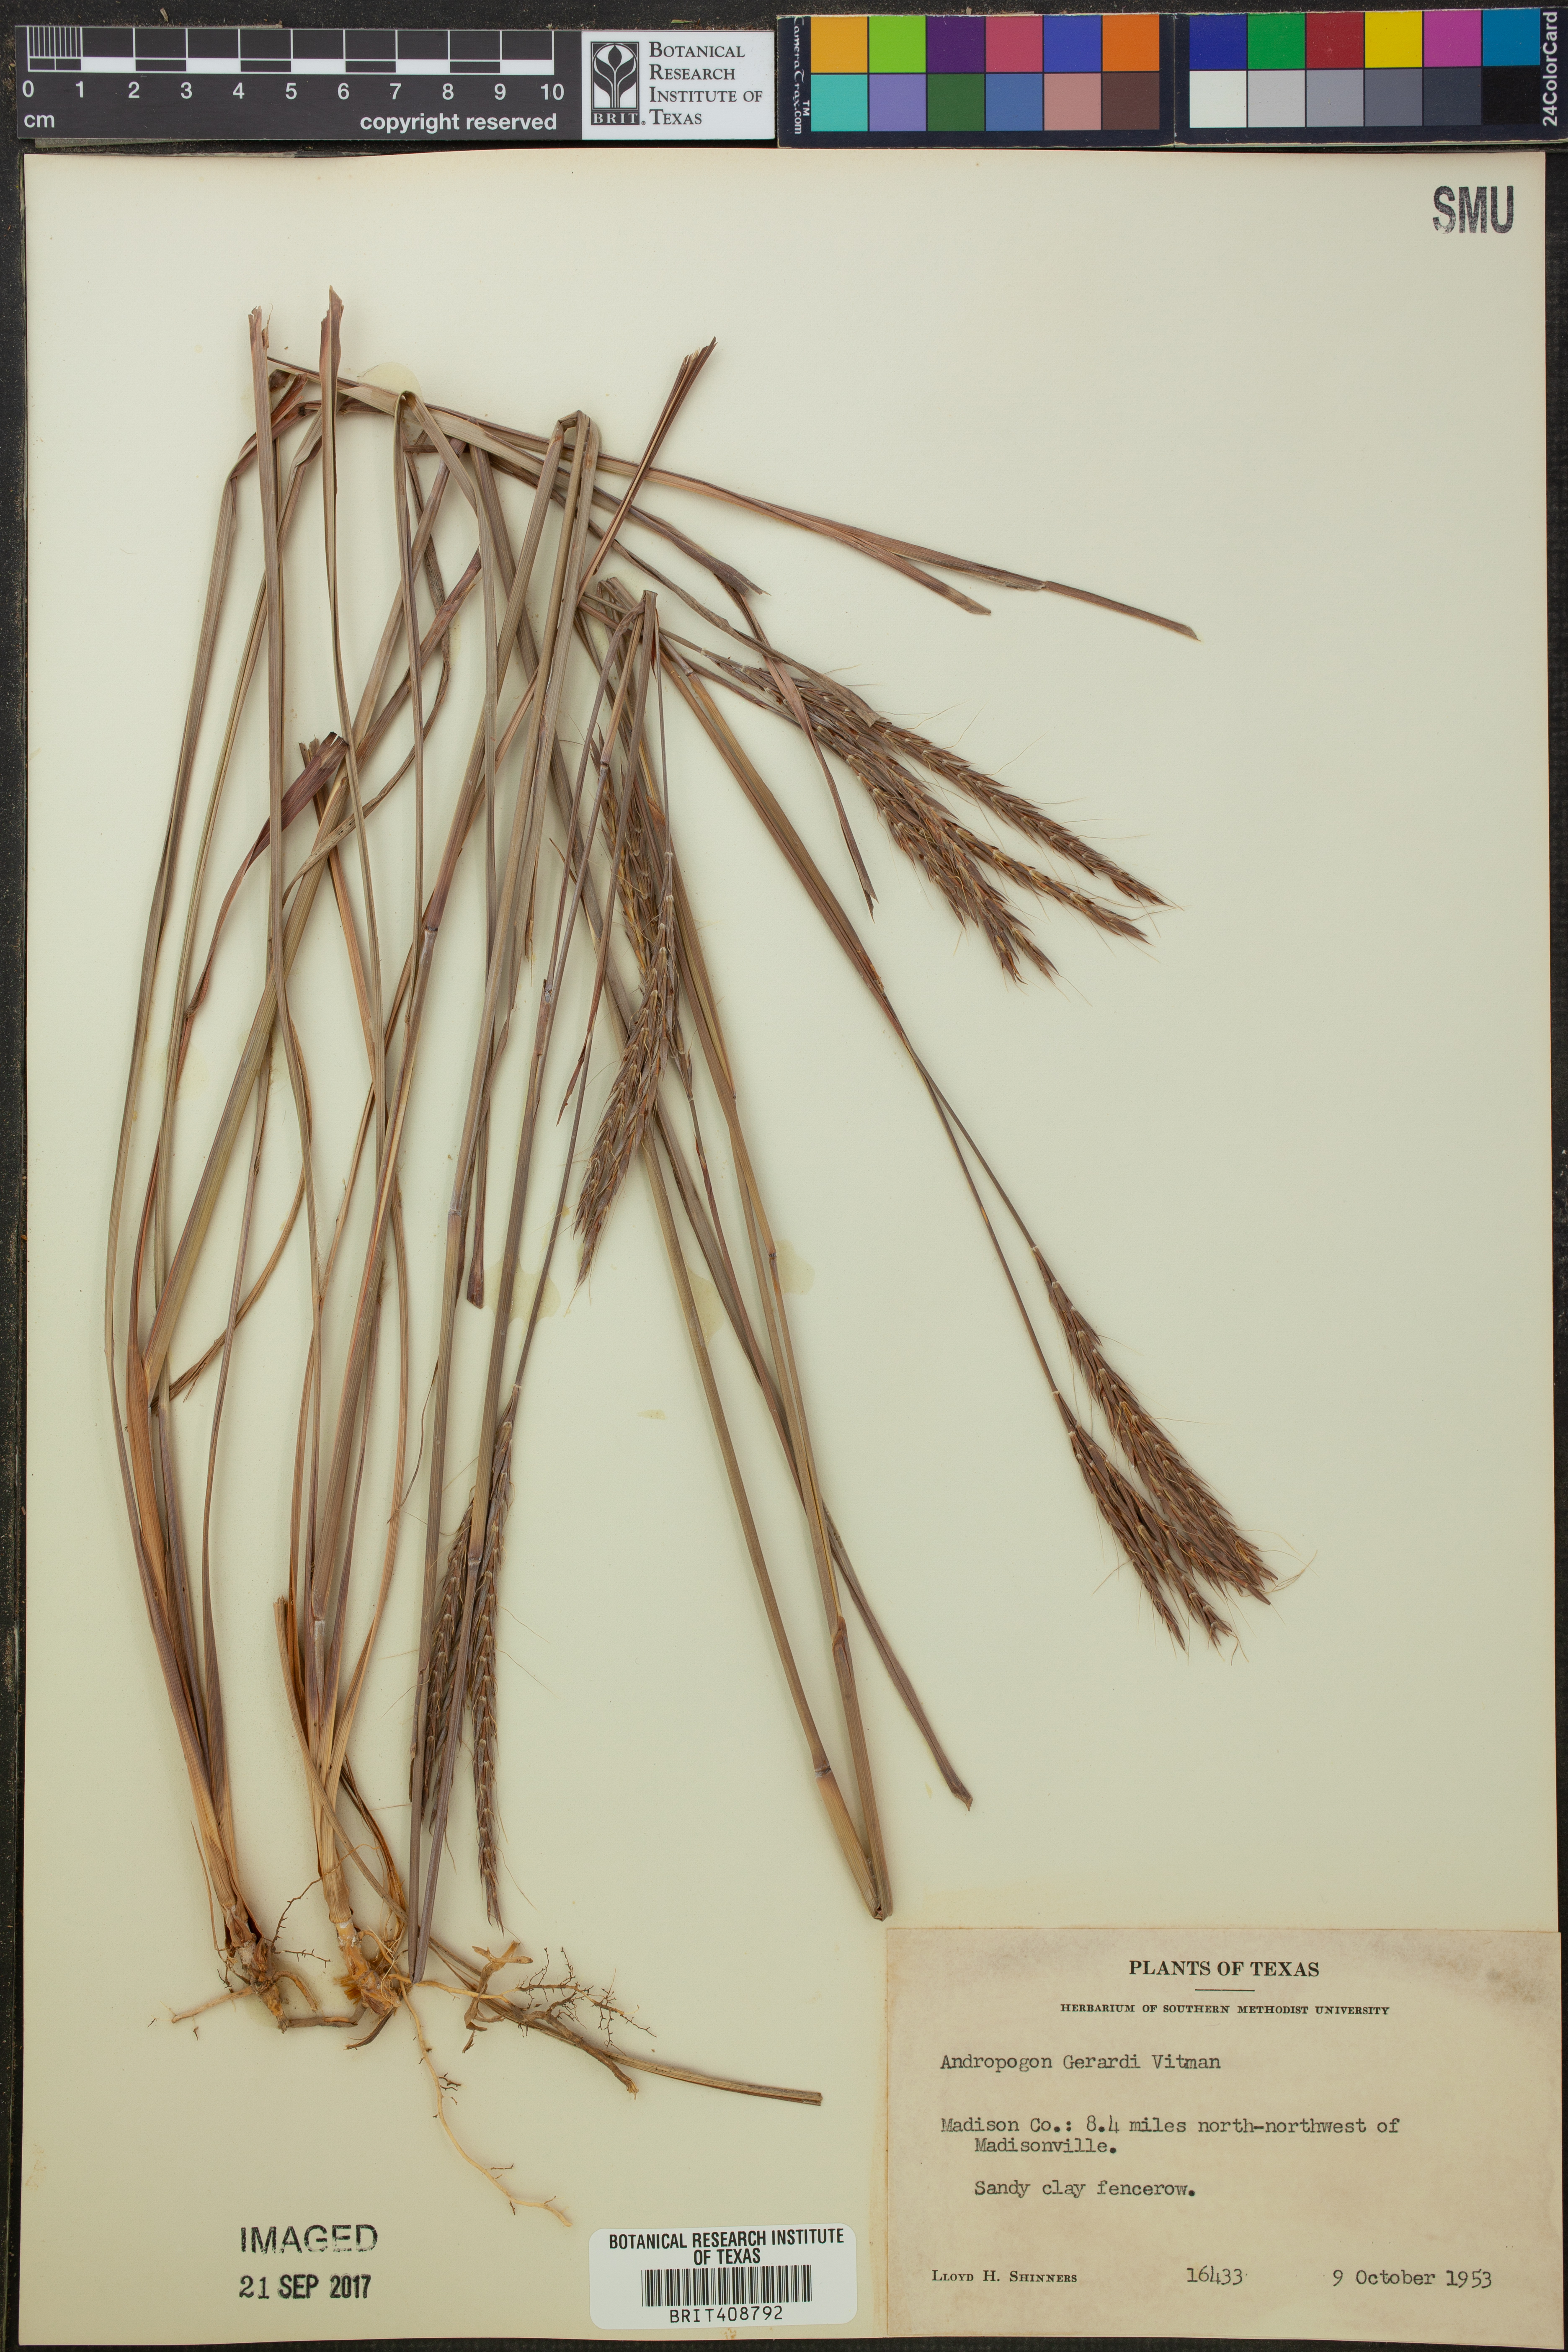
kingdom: Plantae
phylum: Tracheophyta
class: Liliopsida
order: Poales
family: Poaceae
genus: Andropogon
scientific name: Andropogon gerardi
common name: Big bluestem
